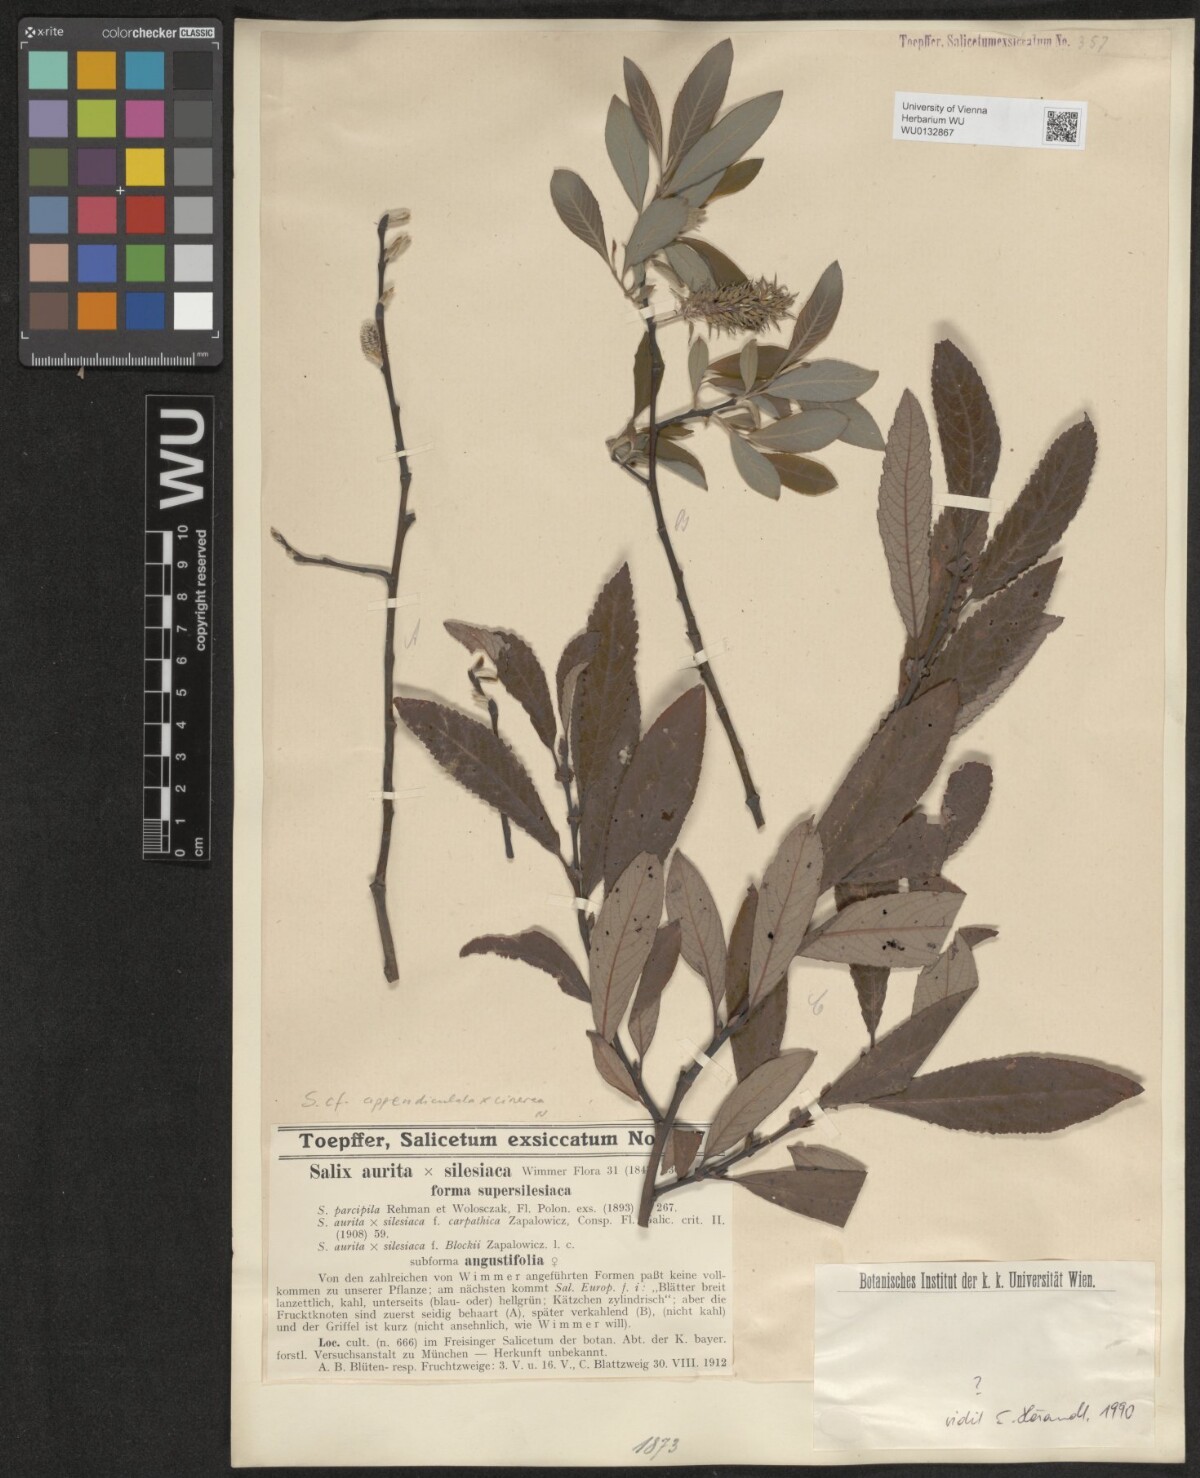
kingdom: Plantae
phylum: Tracheophyta
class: Magnoliopsida
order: Malpighiales
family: Salicaceae
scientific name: Salicaceae
